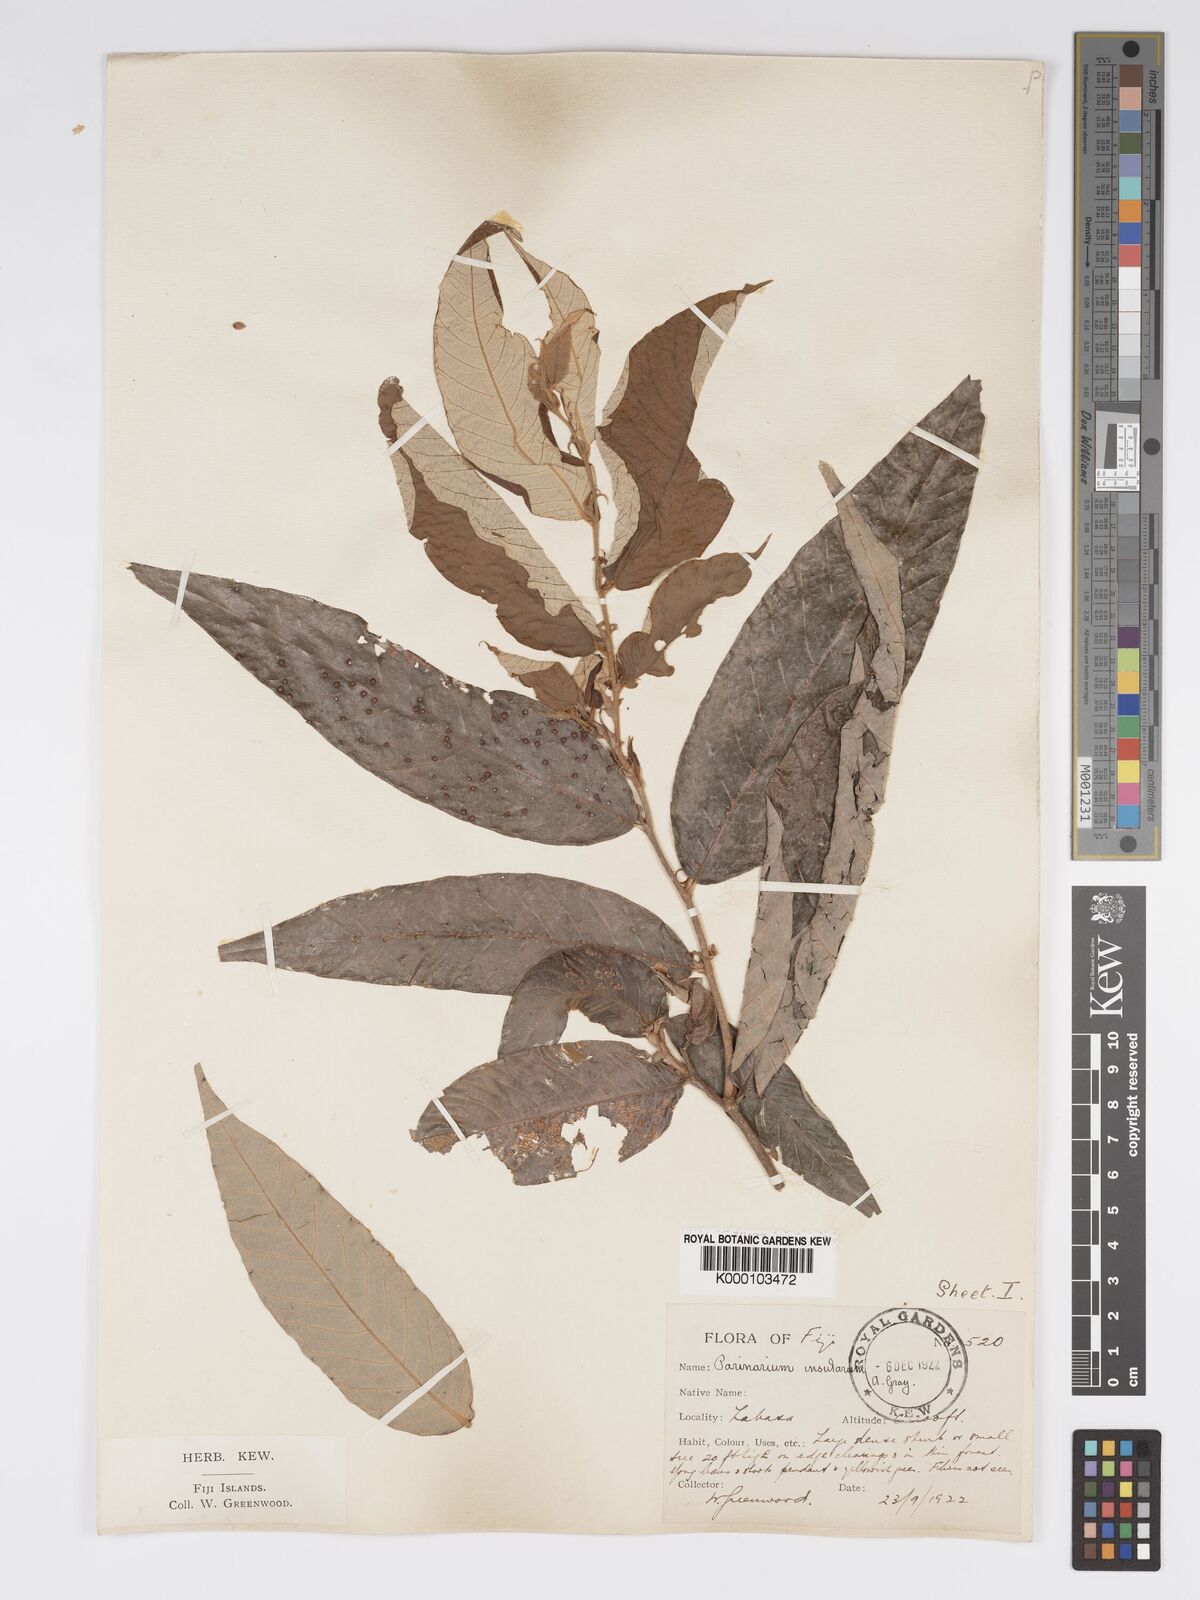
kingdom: Plantae
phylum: Tracheophyta
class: Magnoliopsida
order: Malpighiales
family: Chrysobalanaceae
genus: Parinari
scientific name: Parinari insularum
